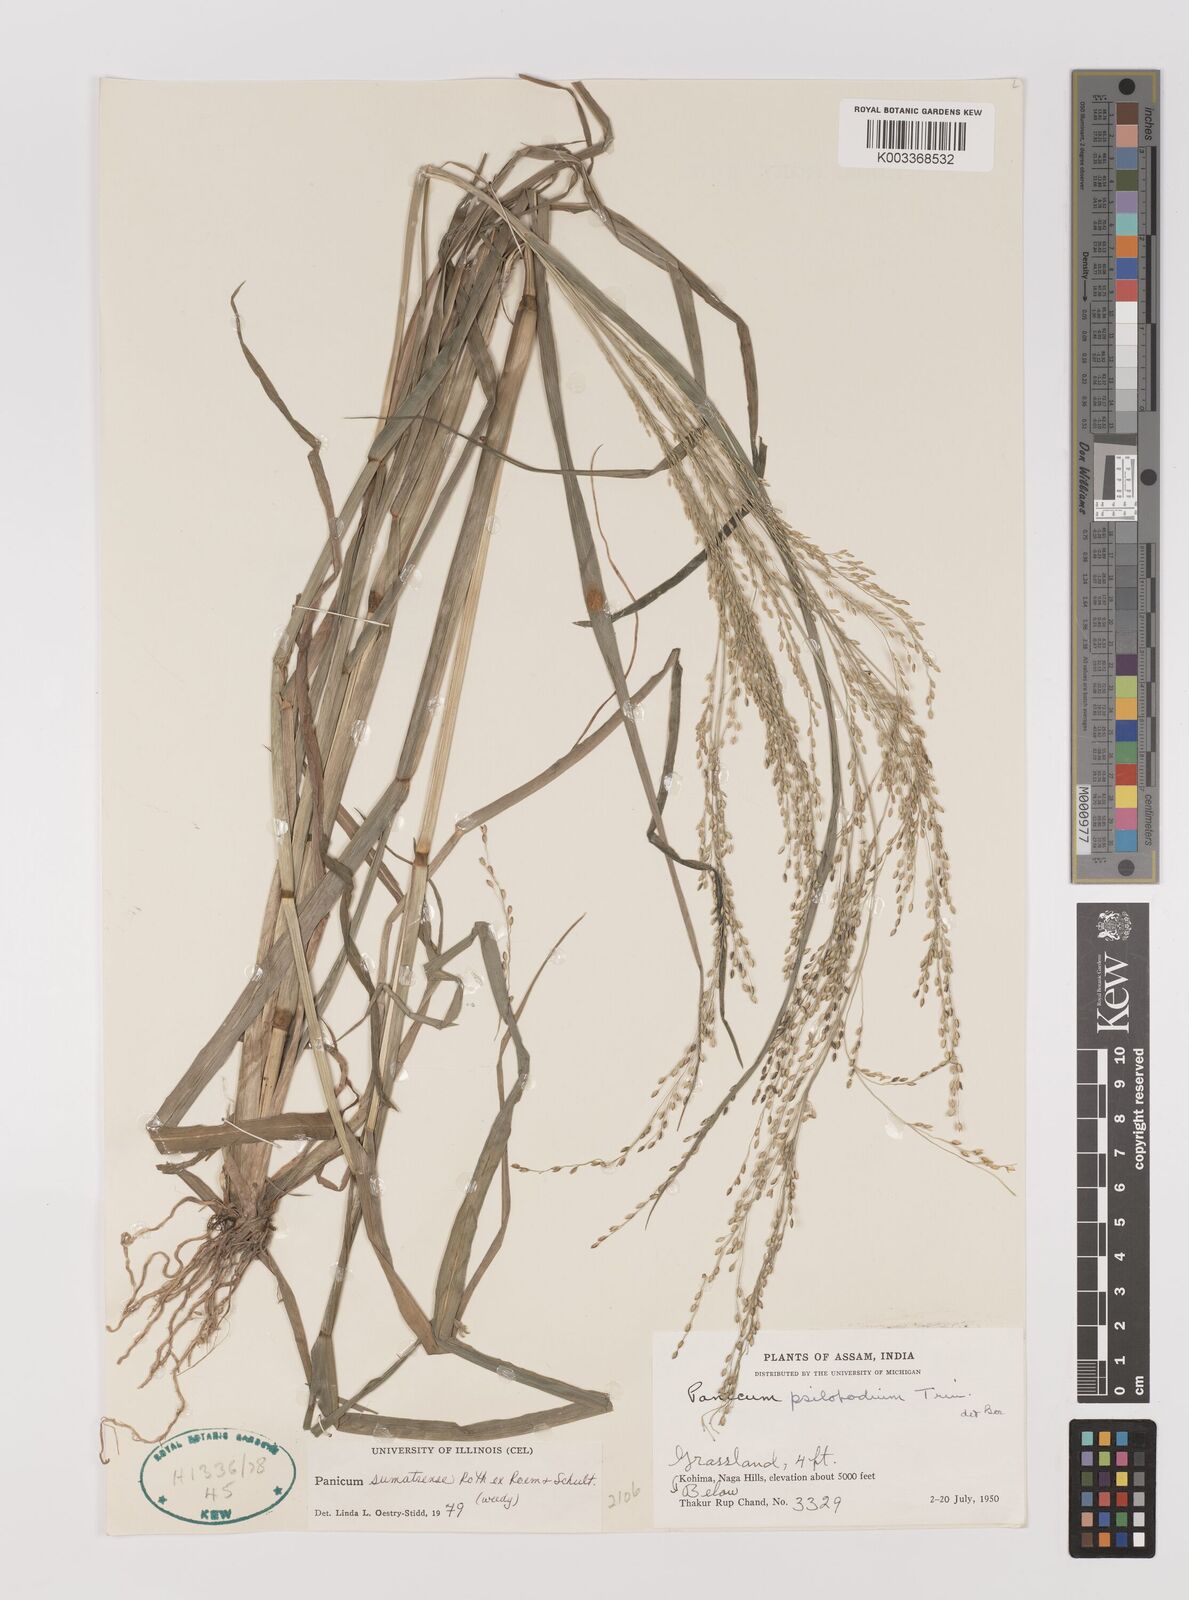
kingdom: Plantae
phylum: Tracheophyta
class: Liliopsida
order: Poales
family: Poaceae
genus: Panicum
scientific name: Panicum sumatrense
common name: Little millet
